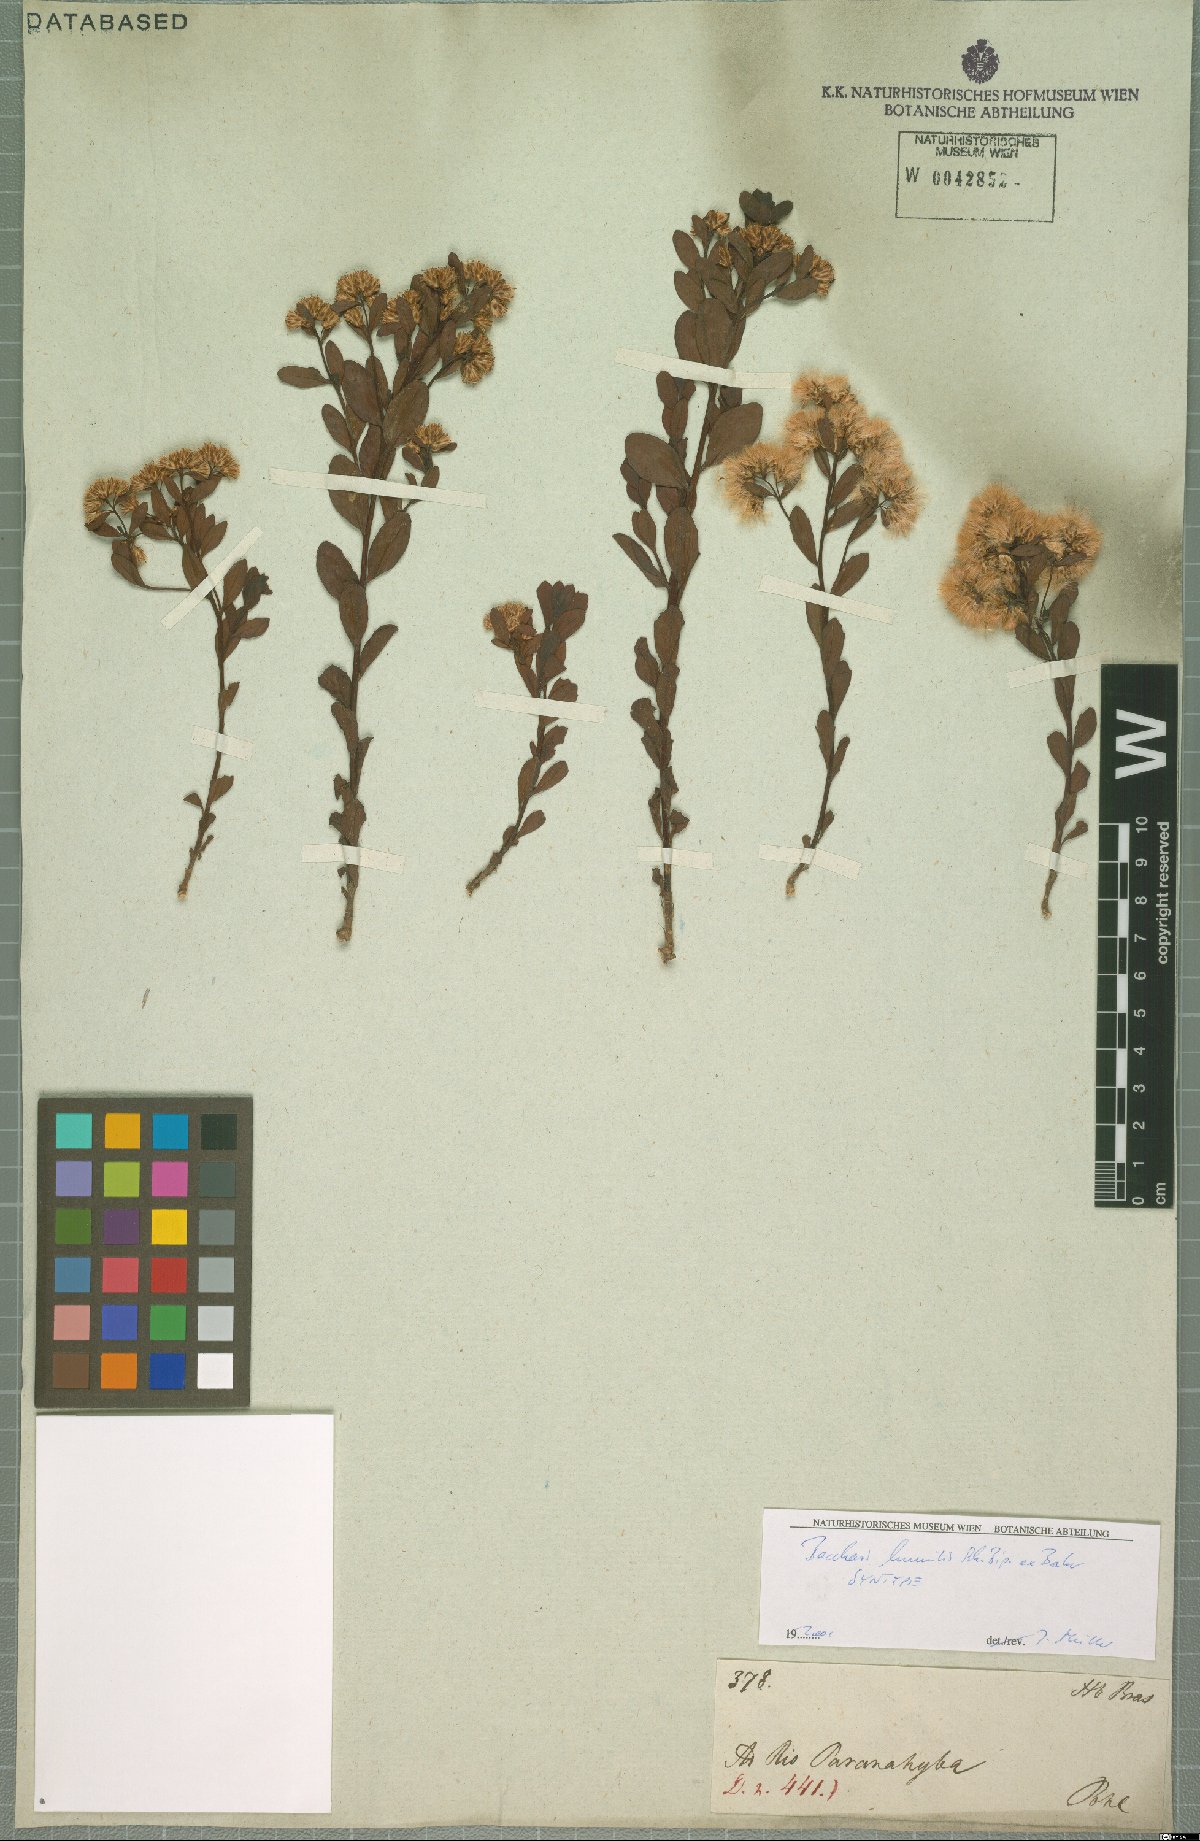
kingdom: Plantae
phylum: Tracheophyta
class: Magnoliopsida
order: Asterales
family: Asteraceae
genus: Baccharis
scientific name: Baccharis humilis
